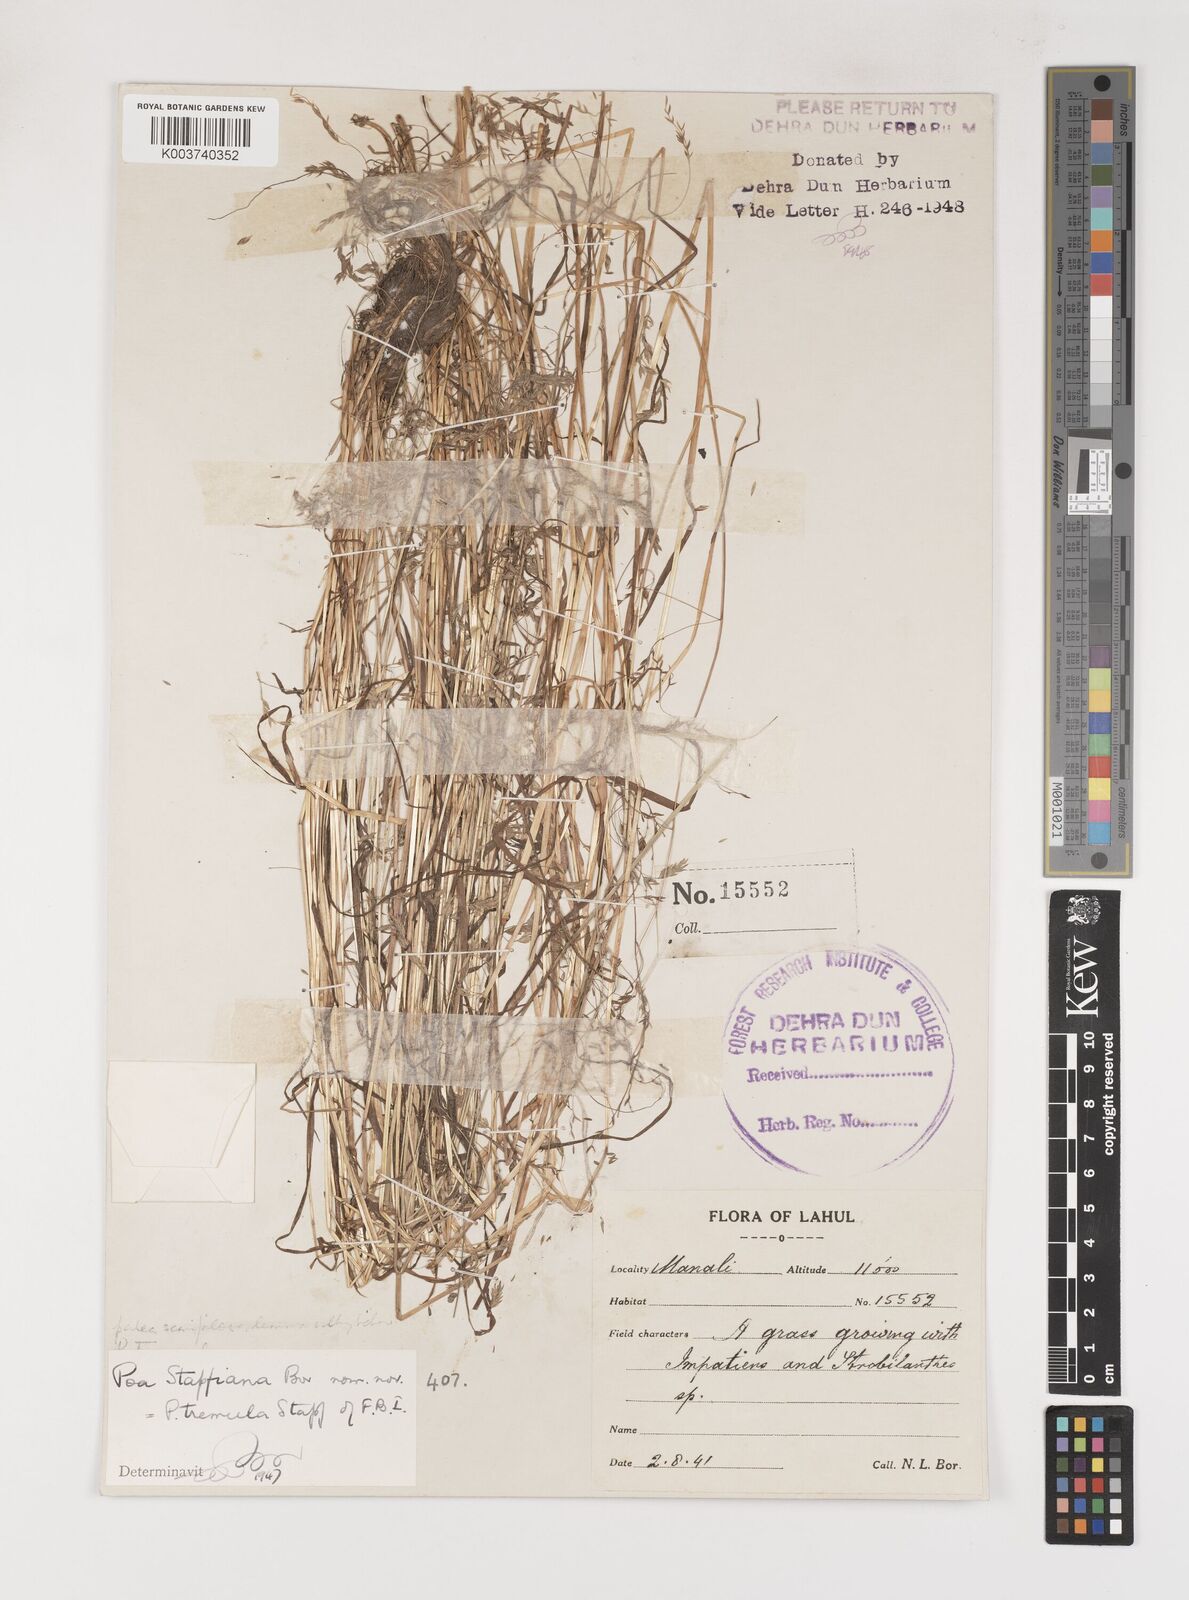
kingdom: Plantae
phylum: Tracheophyta
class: Liliopsida
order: Poales
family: Poaceae
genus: Poa
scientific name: Poa stapfiana
